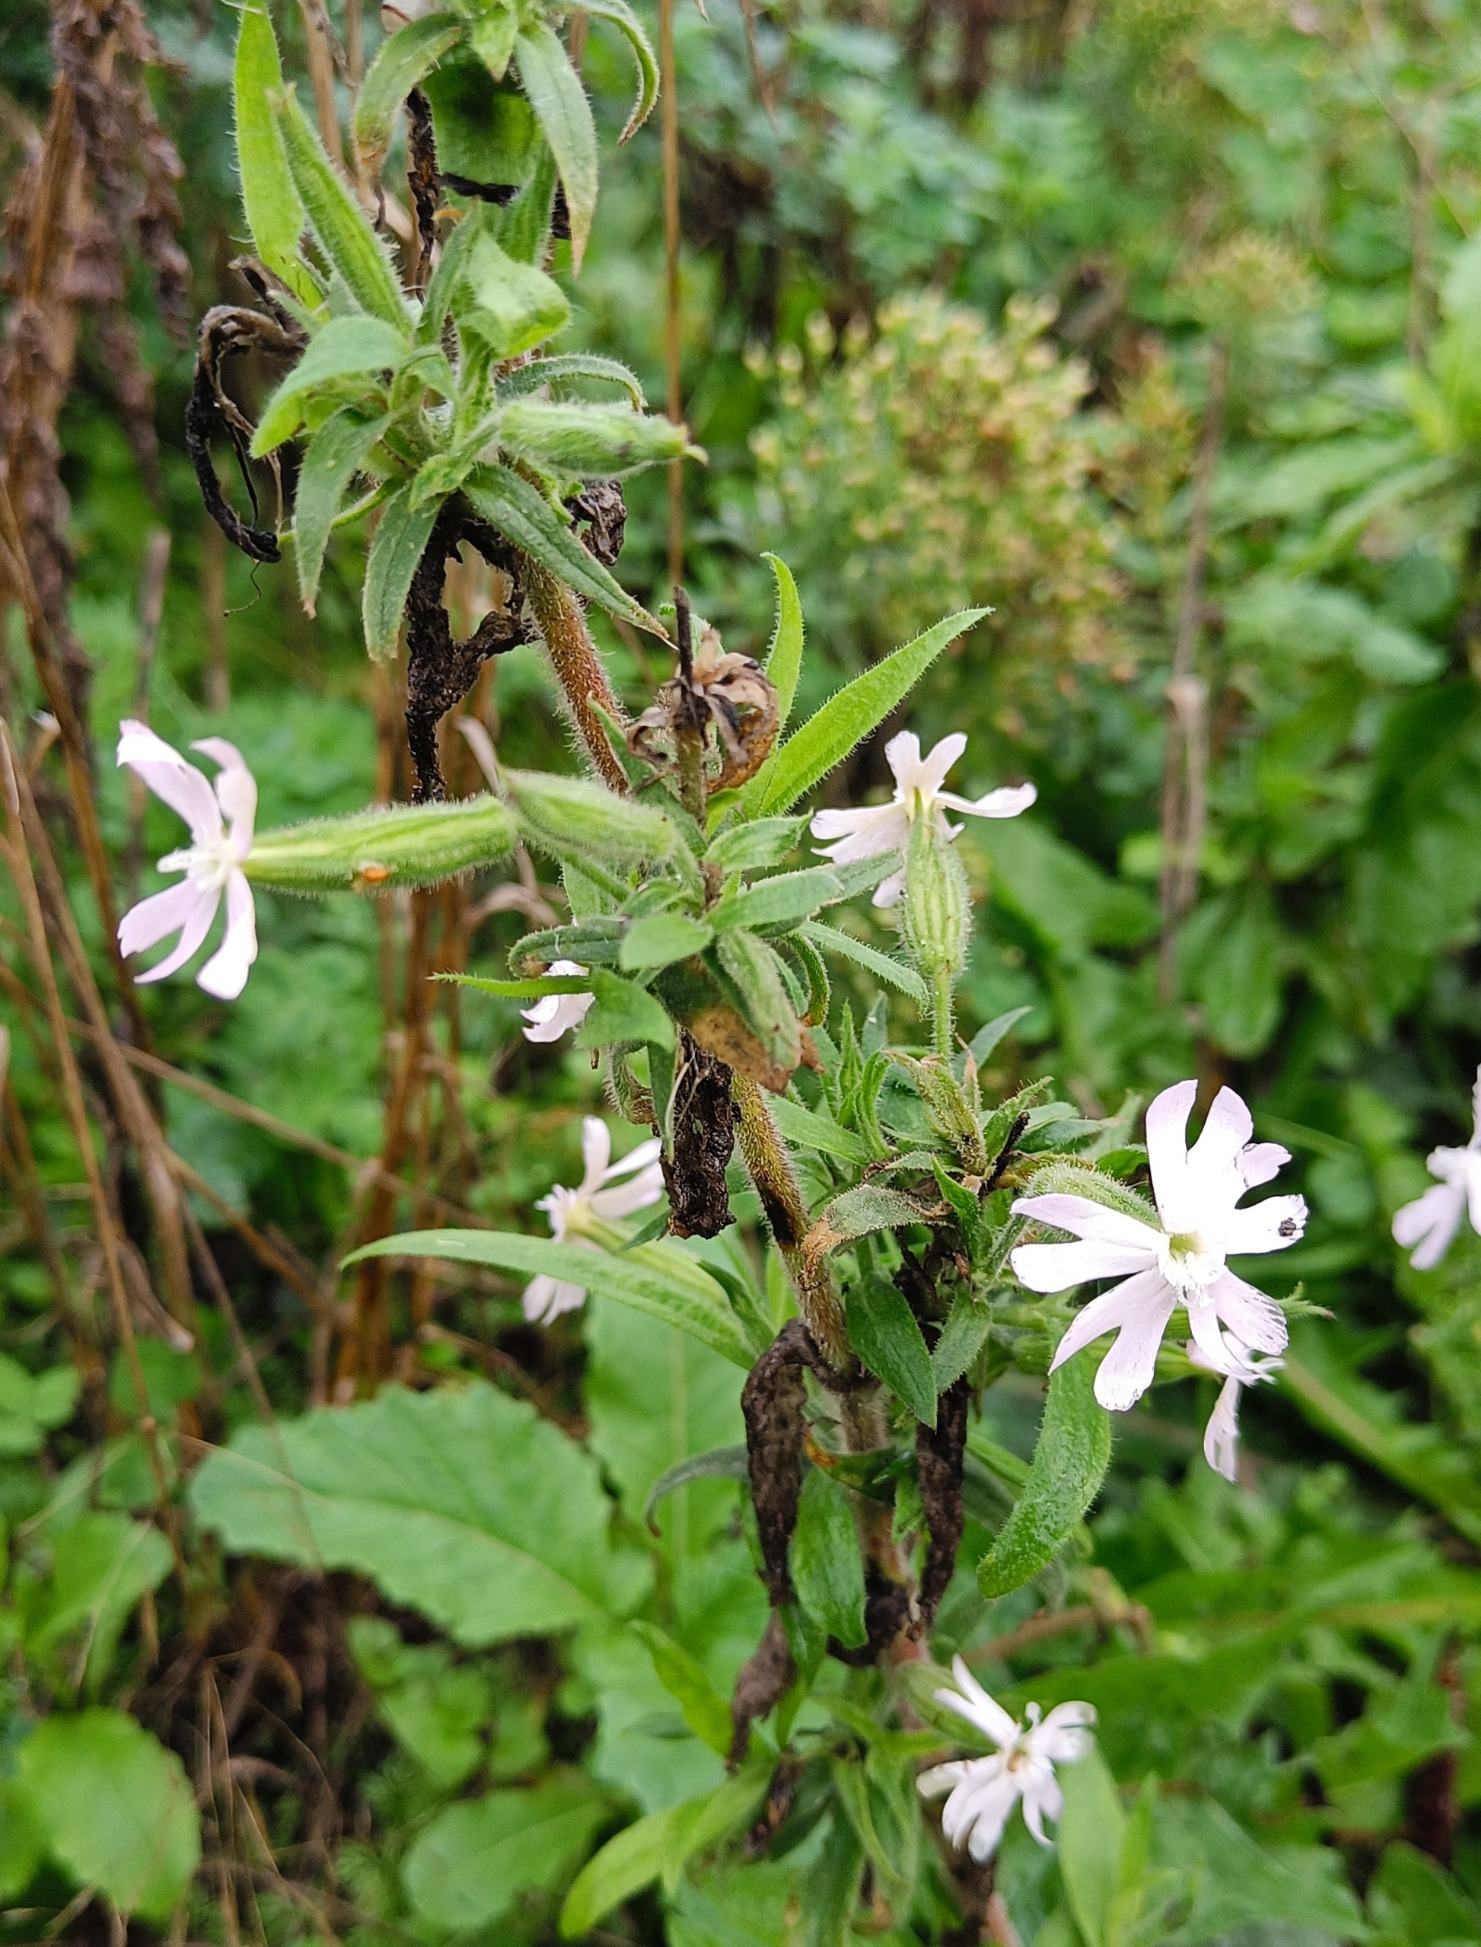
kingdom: Plantae
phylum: Tracheophyta
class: Magnoliopsida
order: Caryophyllales
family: Caryophyllaceae
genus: Silene
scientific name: Silene noctiflora
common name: Nat-limurt
